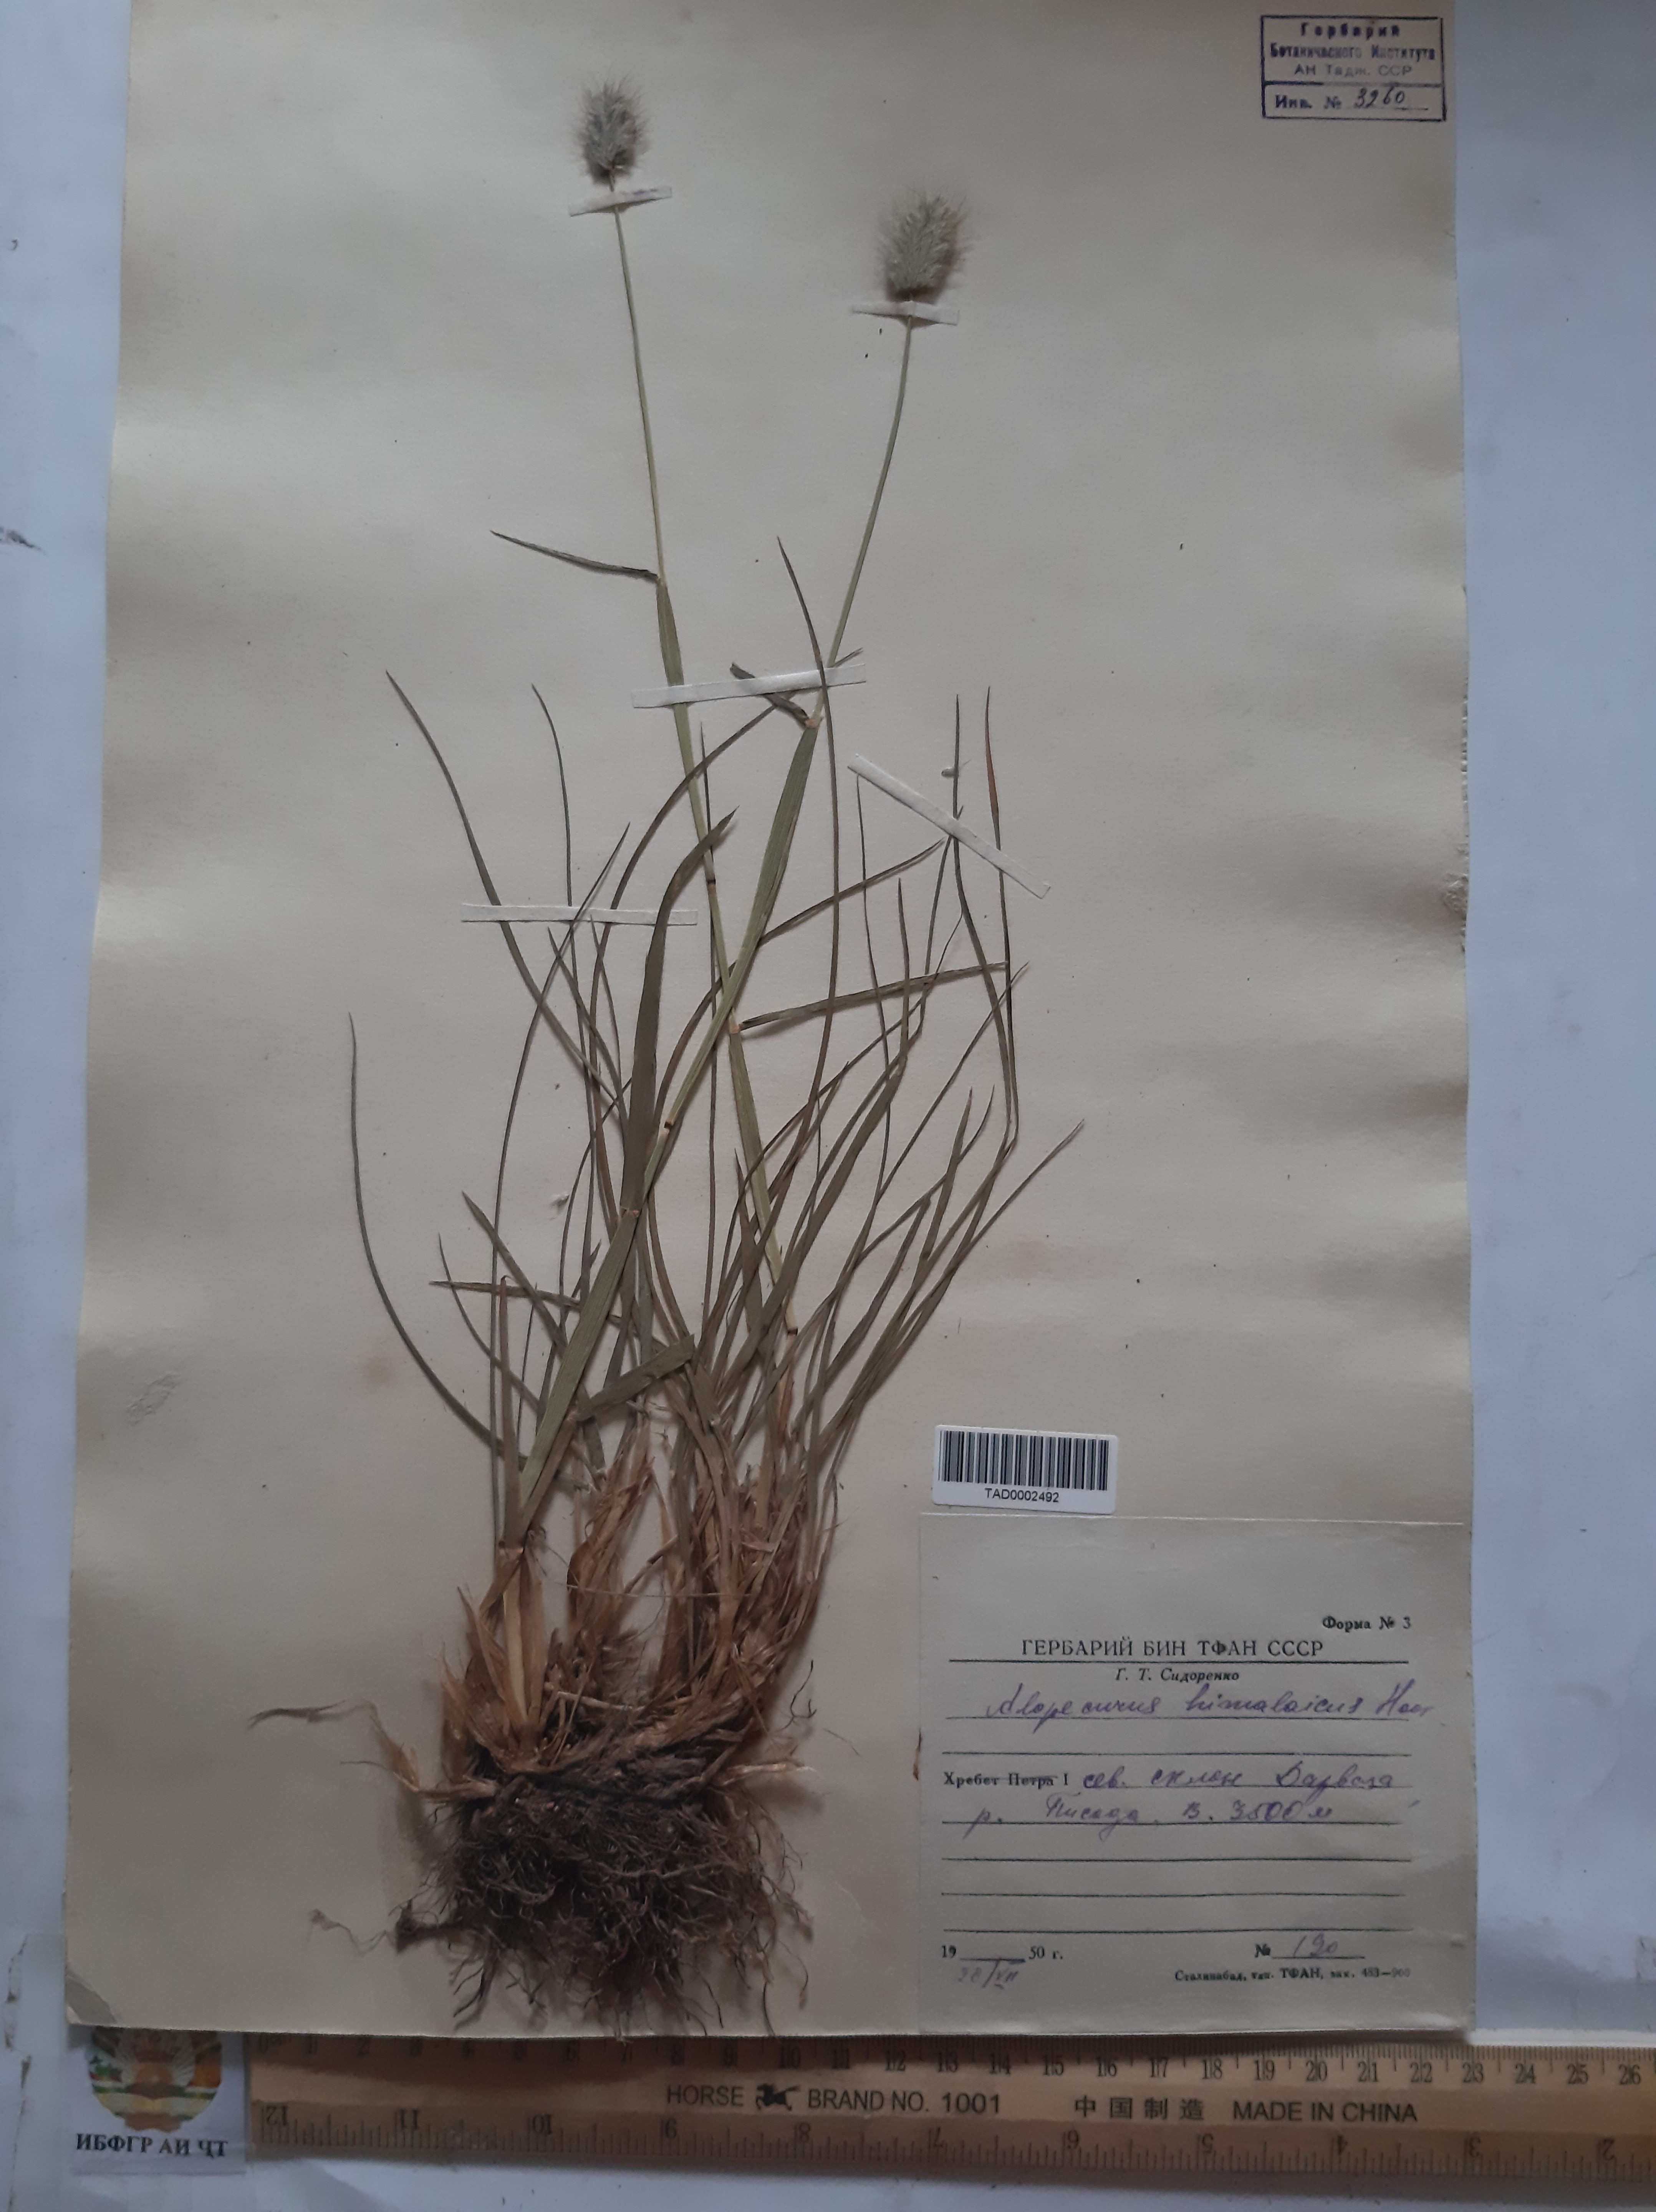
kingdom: Plantae
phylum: Tracheophyta
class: Liliopsida
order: Poales
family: Poaceae
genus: Alopecurus
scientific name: Alopecurus himalaicus
